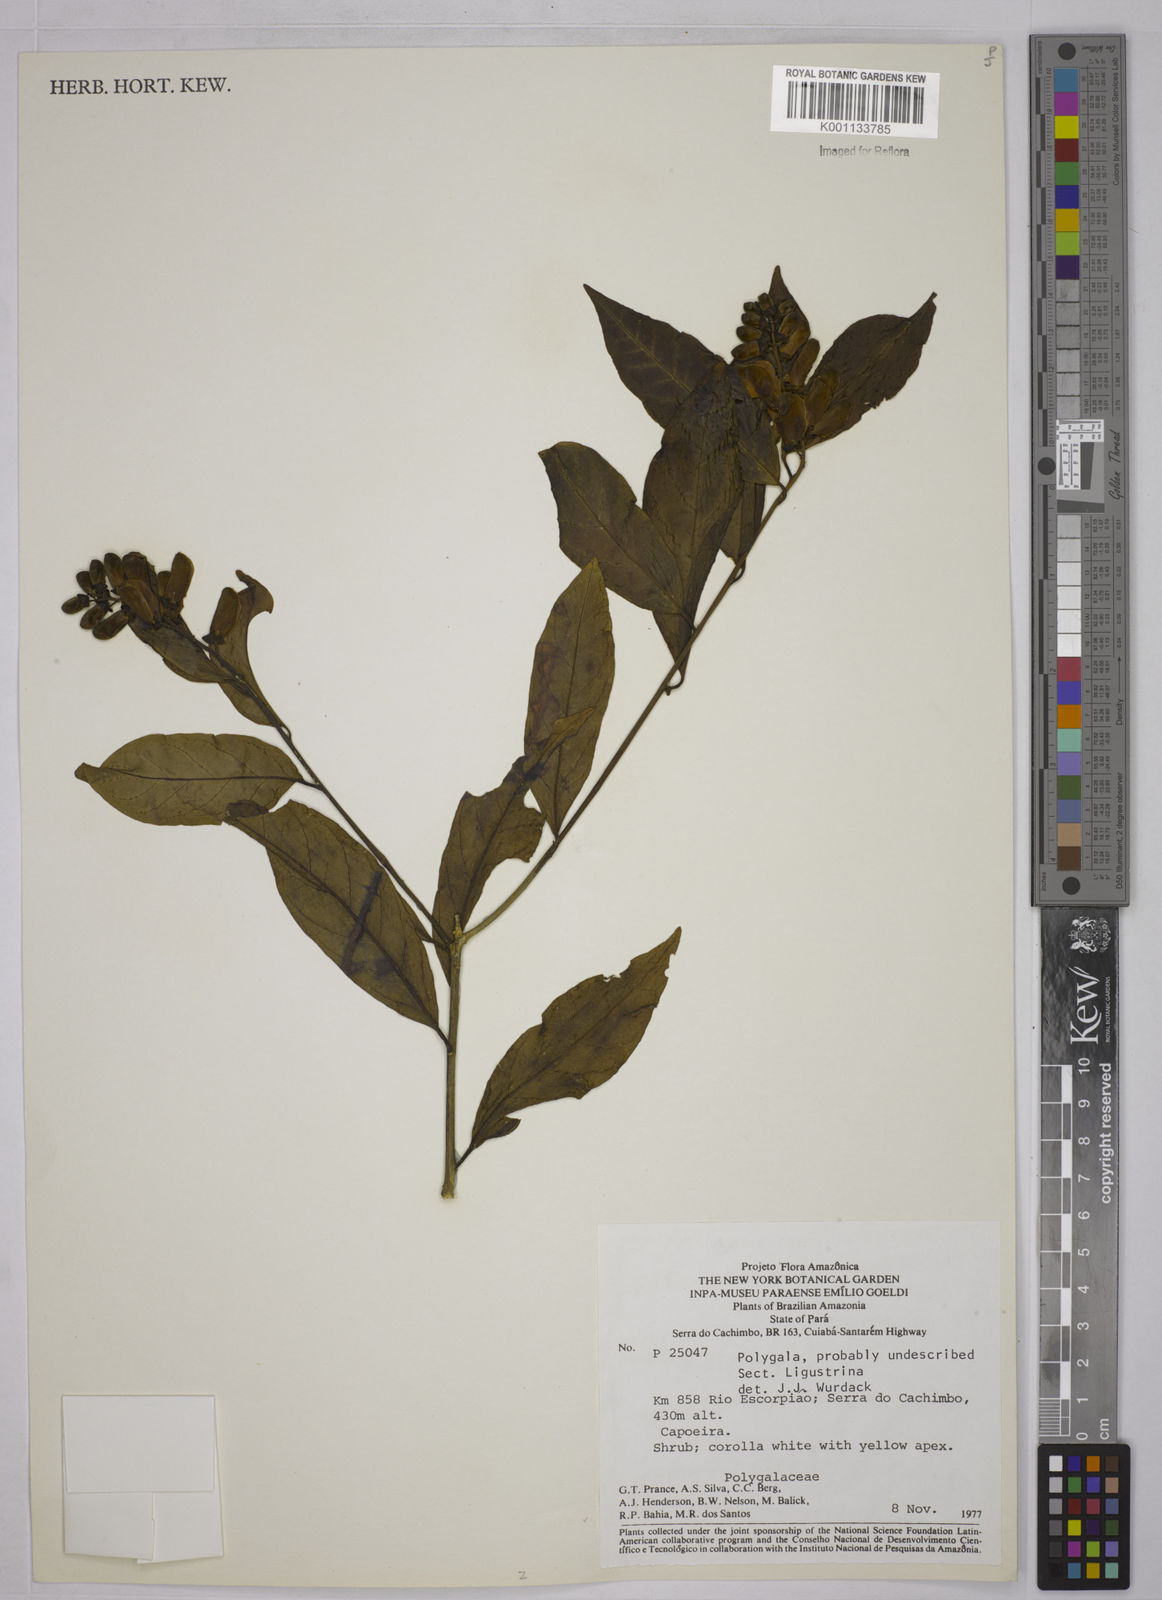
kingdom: Plantae
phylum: Tracheophyta
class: Magnoliopsida
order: Fabales
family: Polygalaceae
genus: Polygala
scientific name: Polygala
